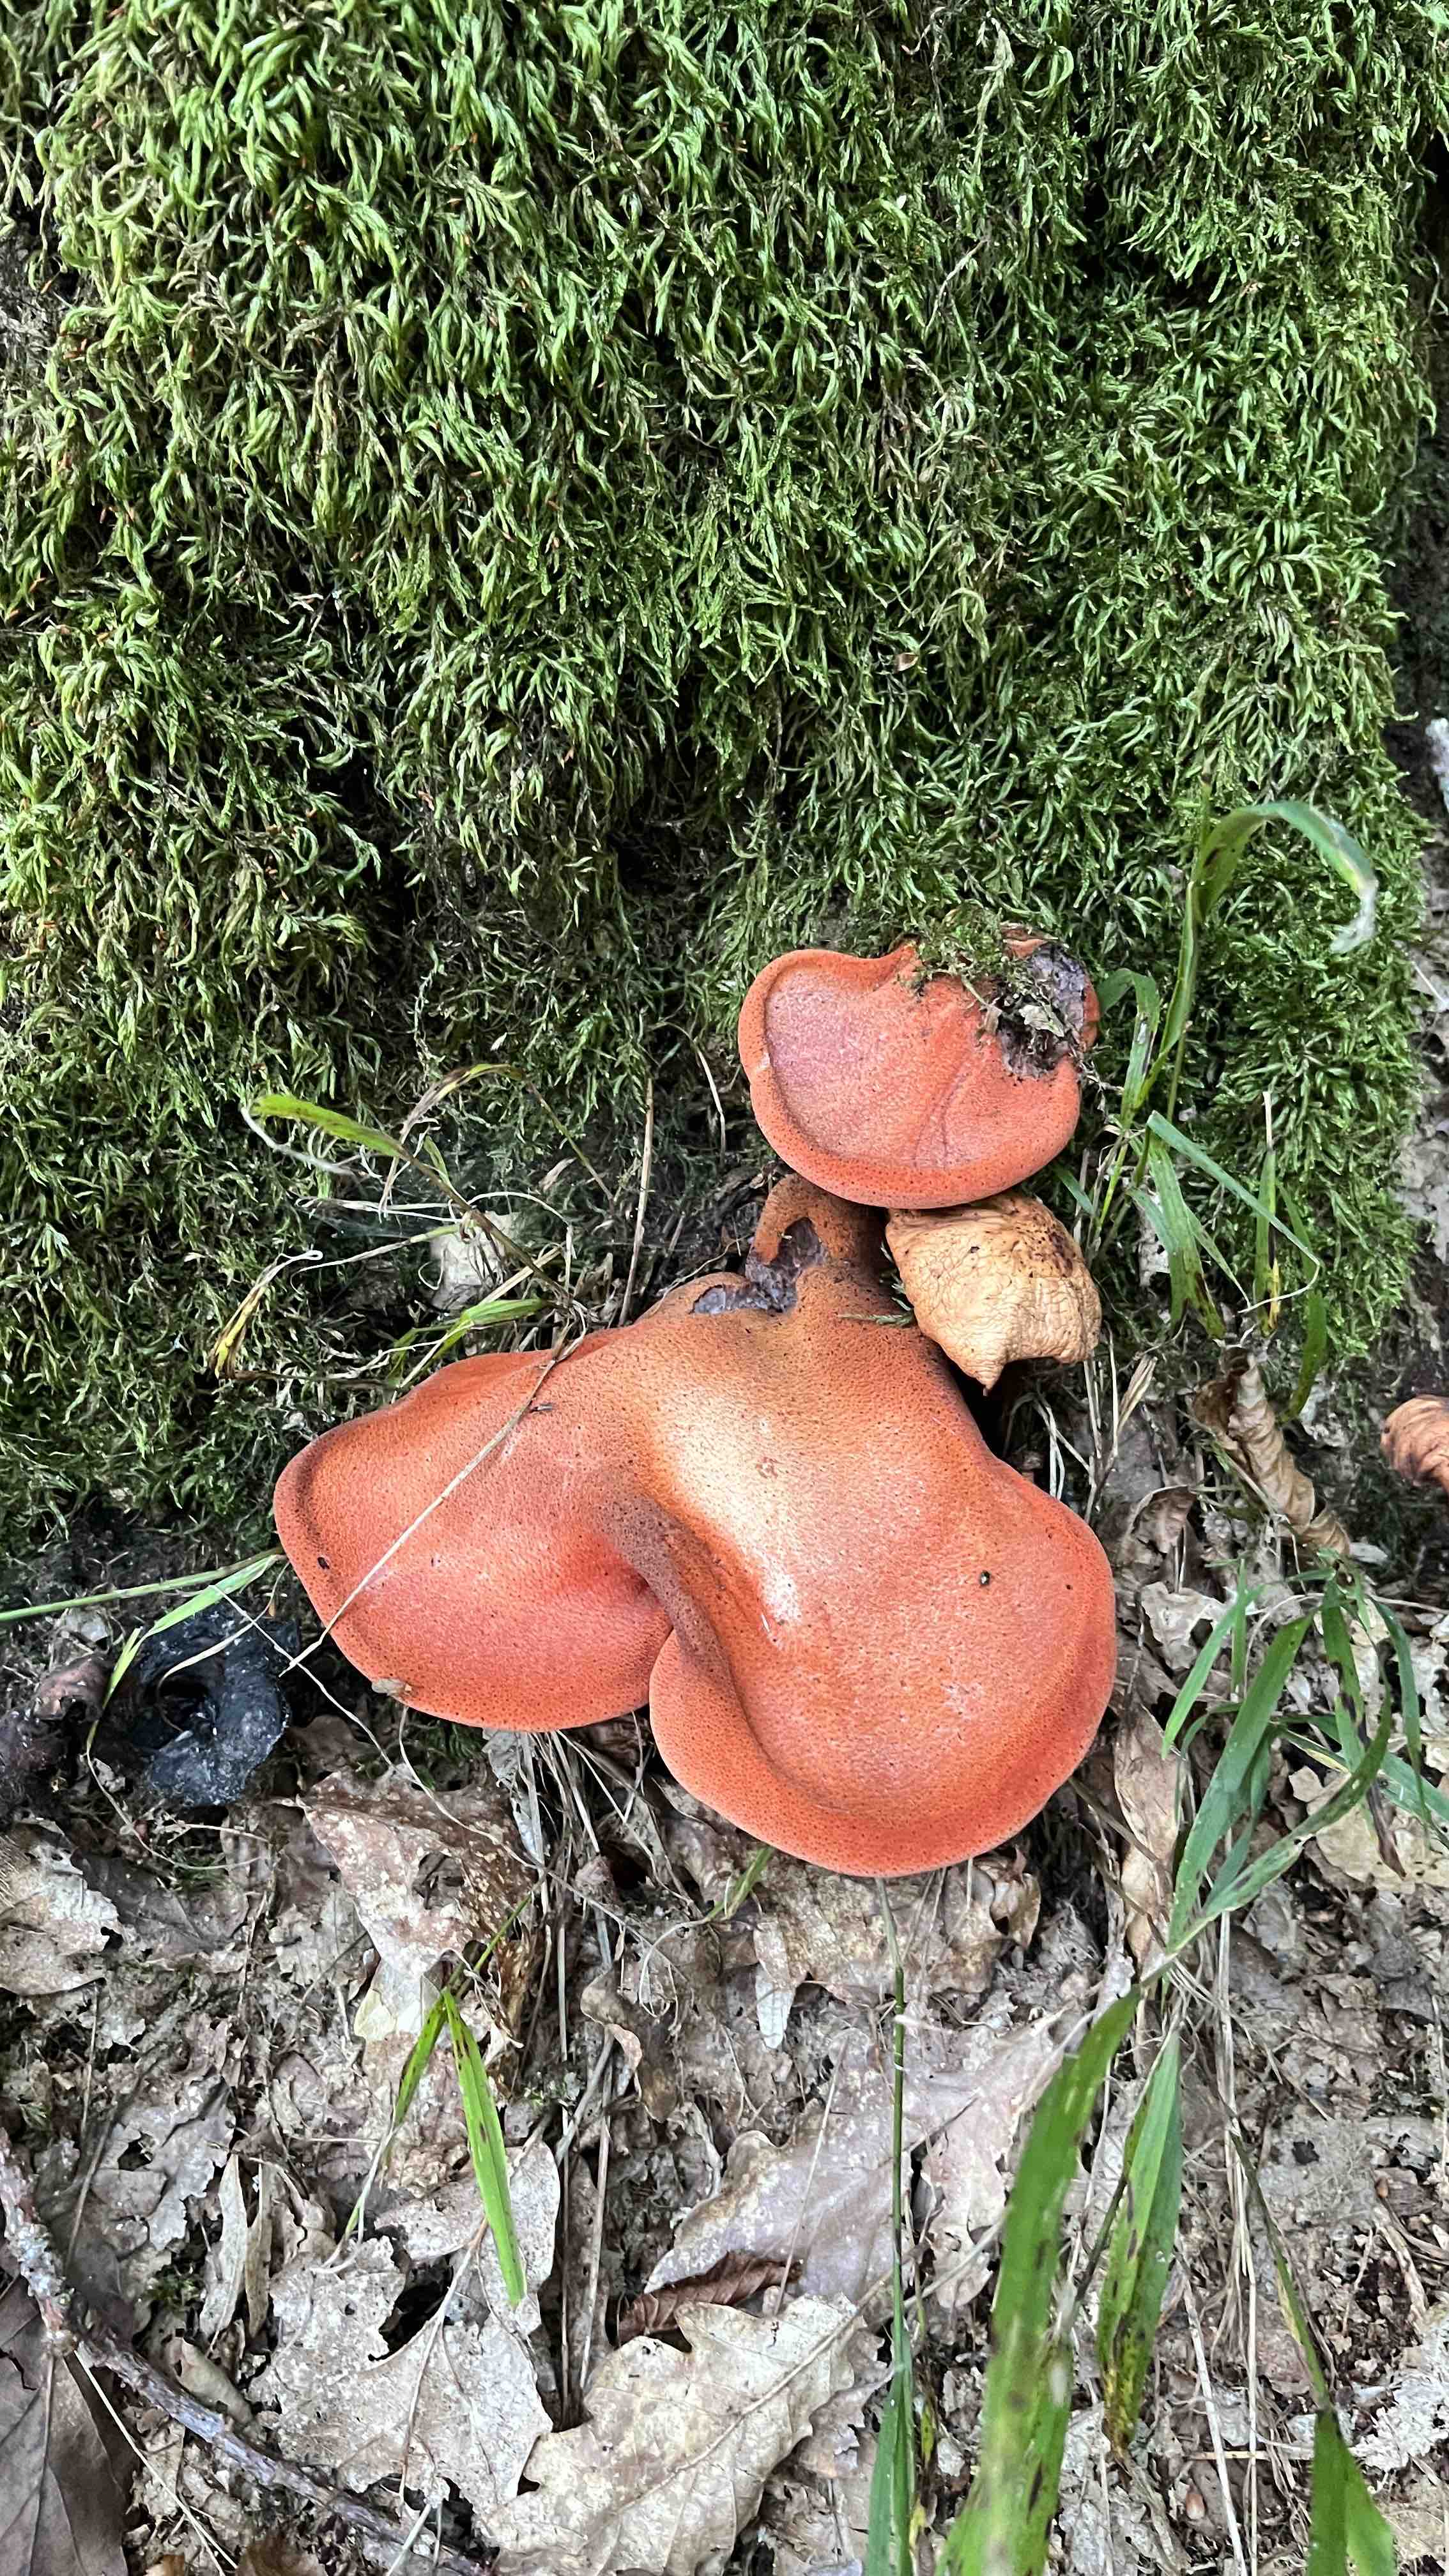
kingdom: Fungi
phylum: Basidiomycota
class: Agaricomycetes
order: Agaricales
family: Fistulinaceae
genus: Fistulina
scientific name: Fistulina hepatica
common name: oksetunge
